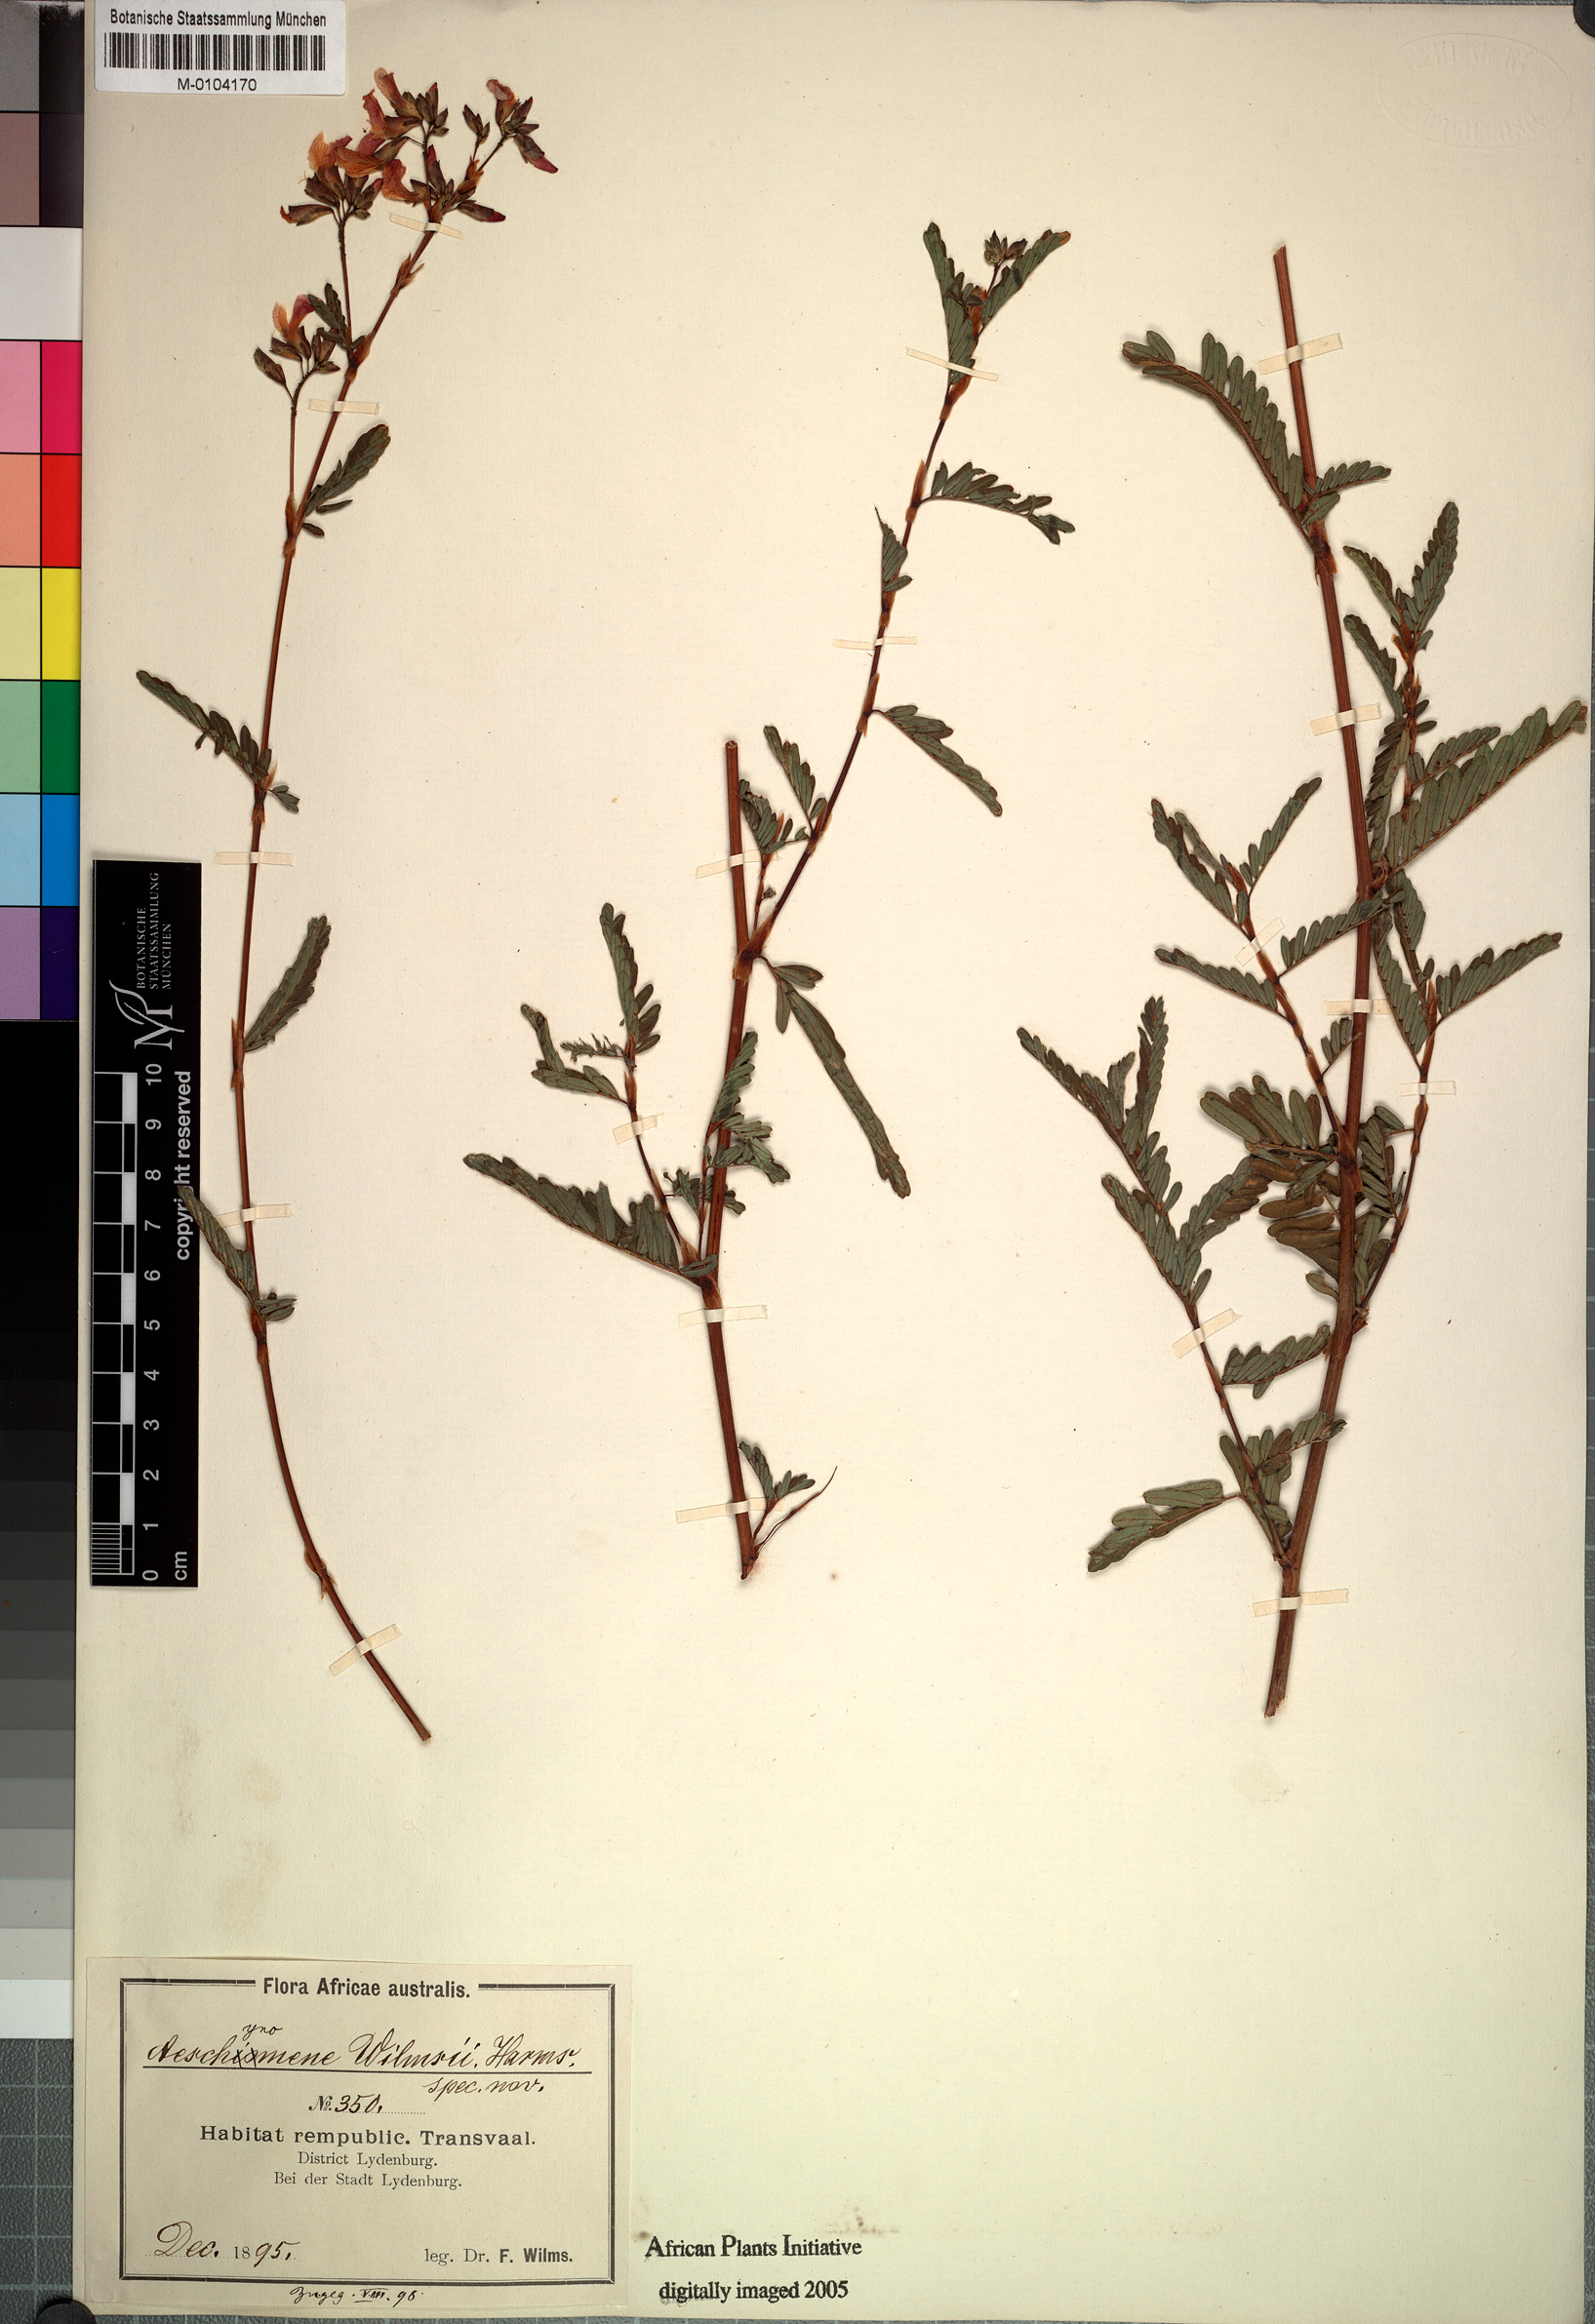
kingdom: Plantae
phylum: Tracheophyta
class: Magnoliopsida
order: Fabales
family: Fabaceae
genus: Aeschynomene
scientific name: Aeschynomene
